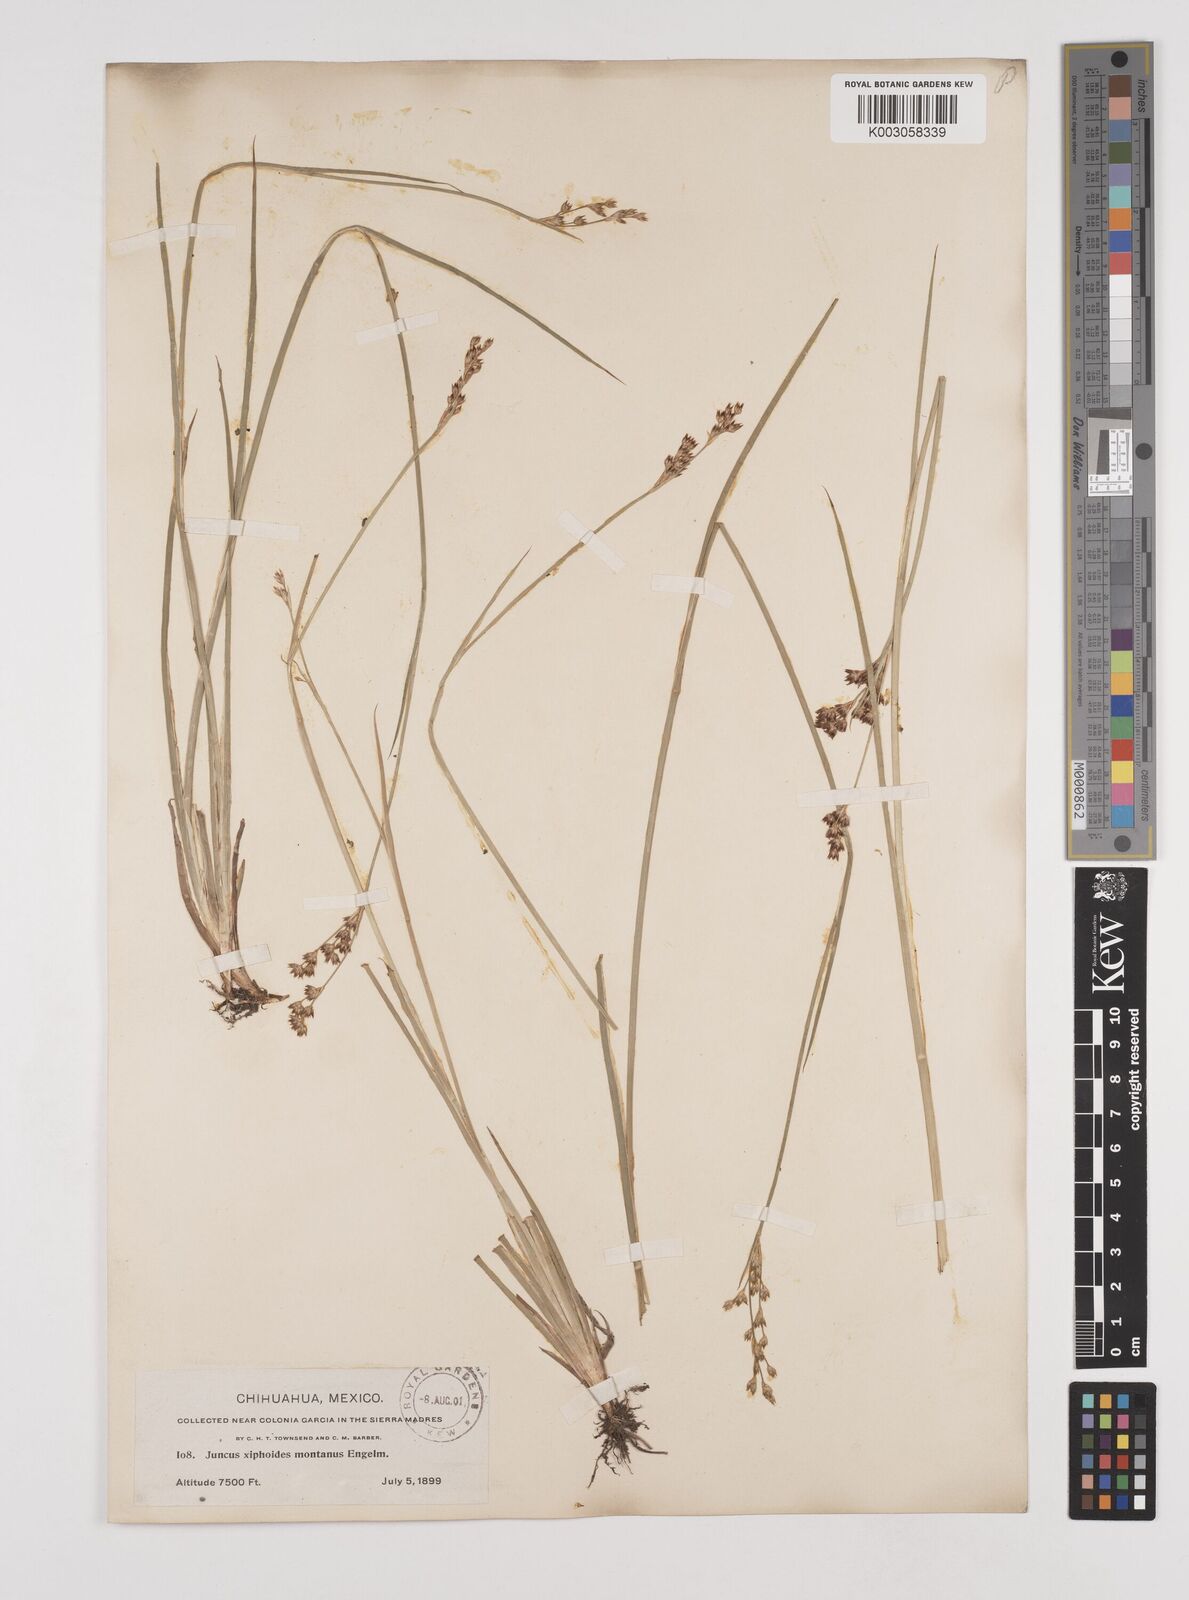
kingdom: Plantae
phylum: Tracheophyta
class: Liliopsida
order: Poales
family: Juncaceae
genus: Juncus
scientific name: Juncus xiphioides
